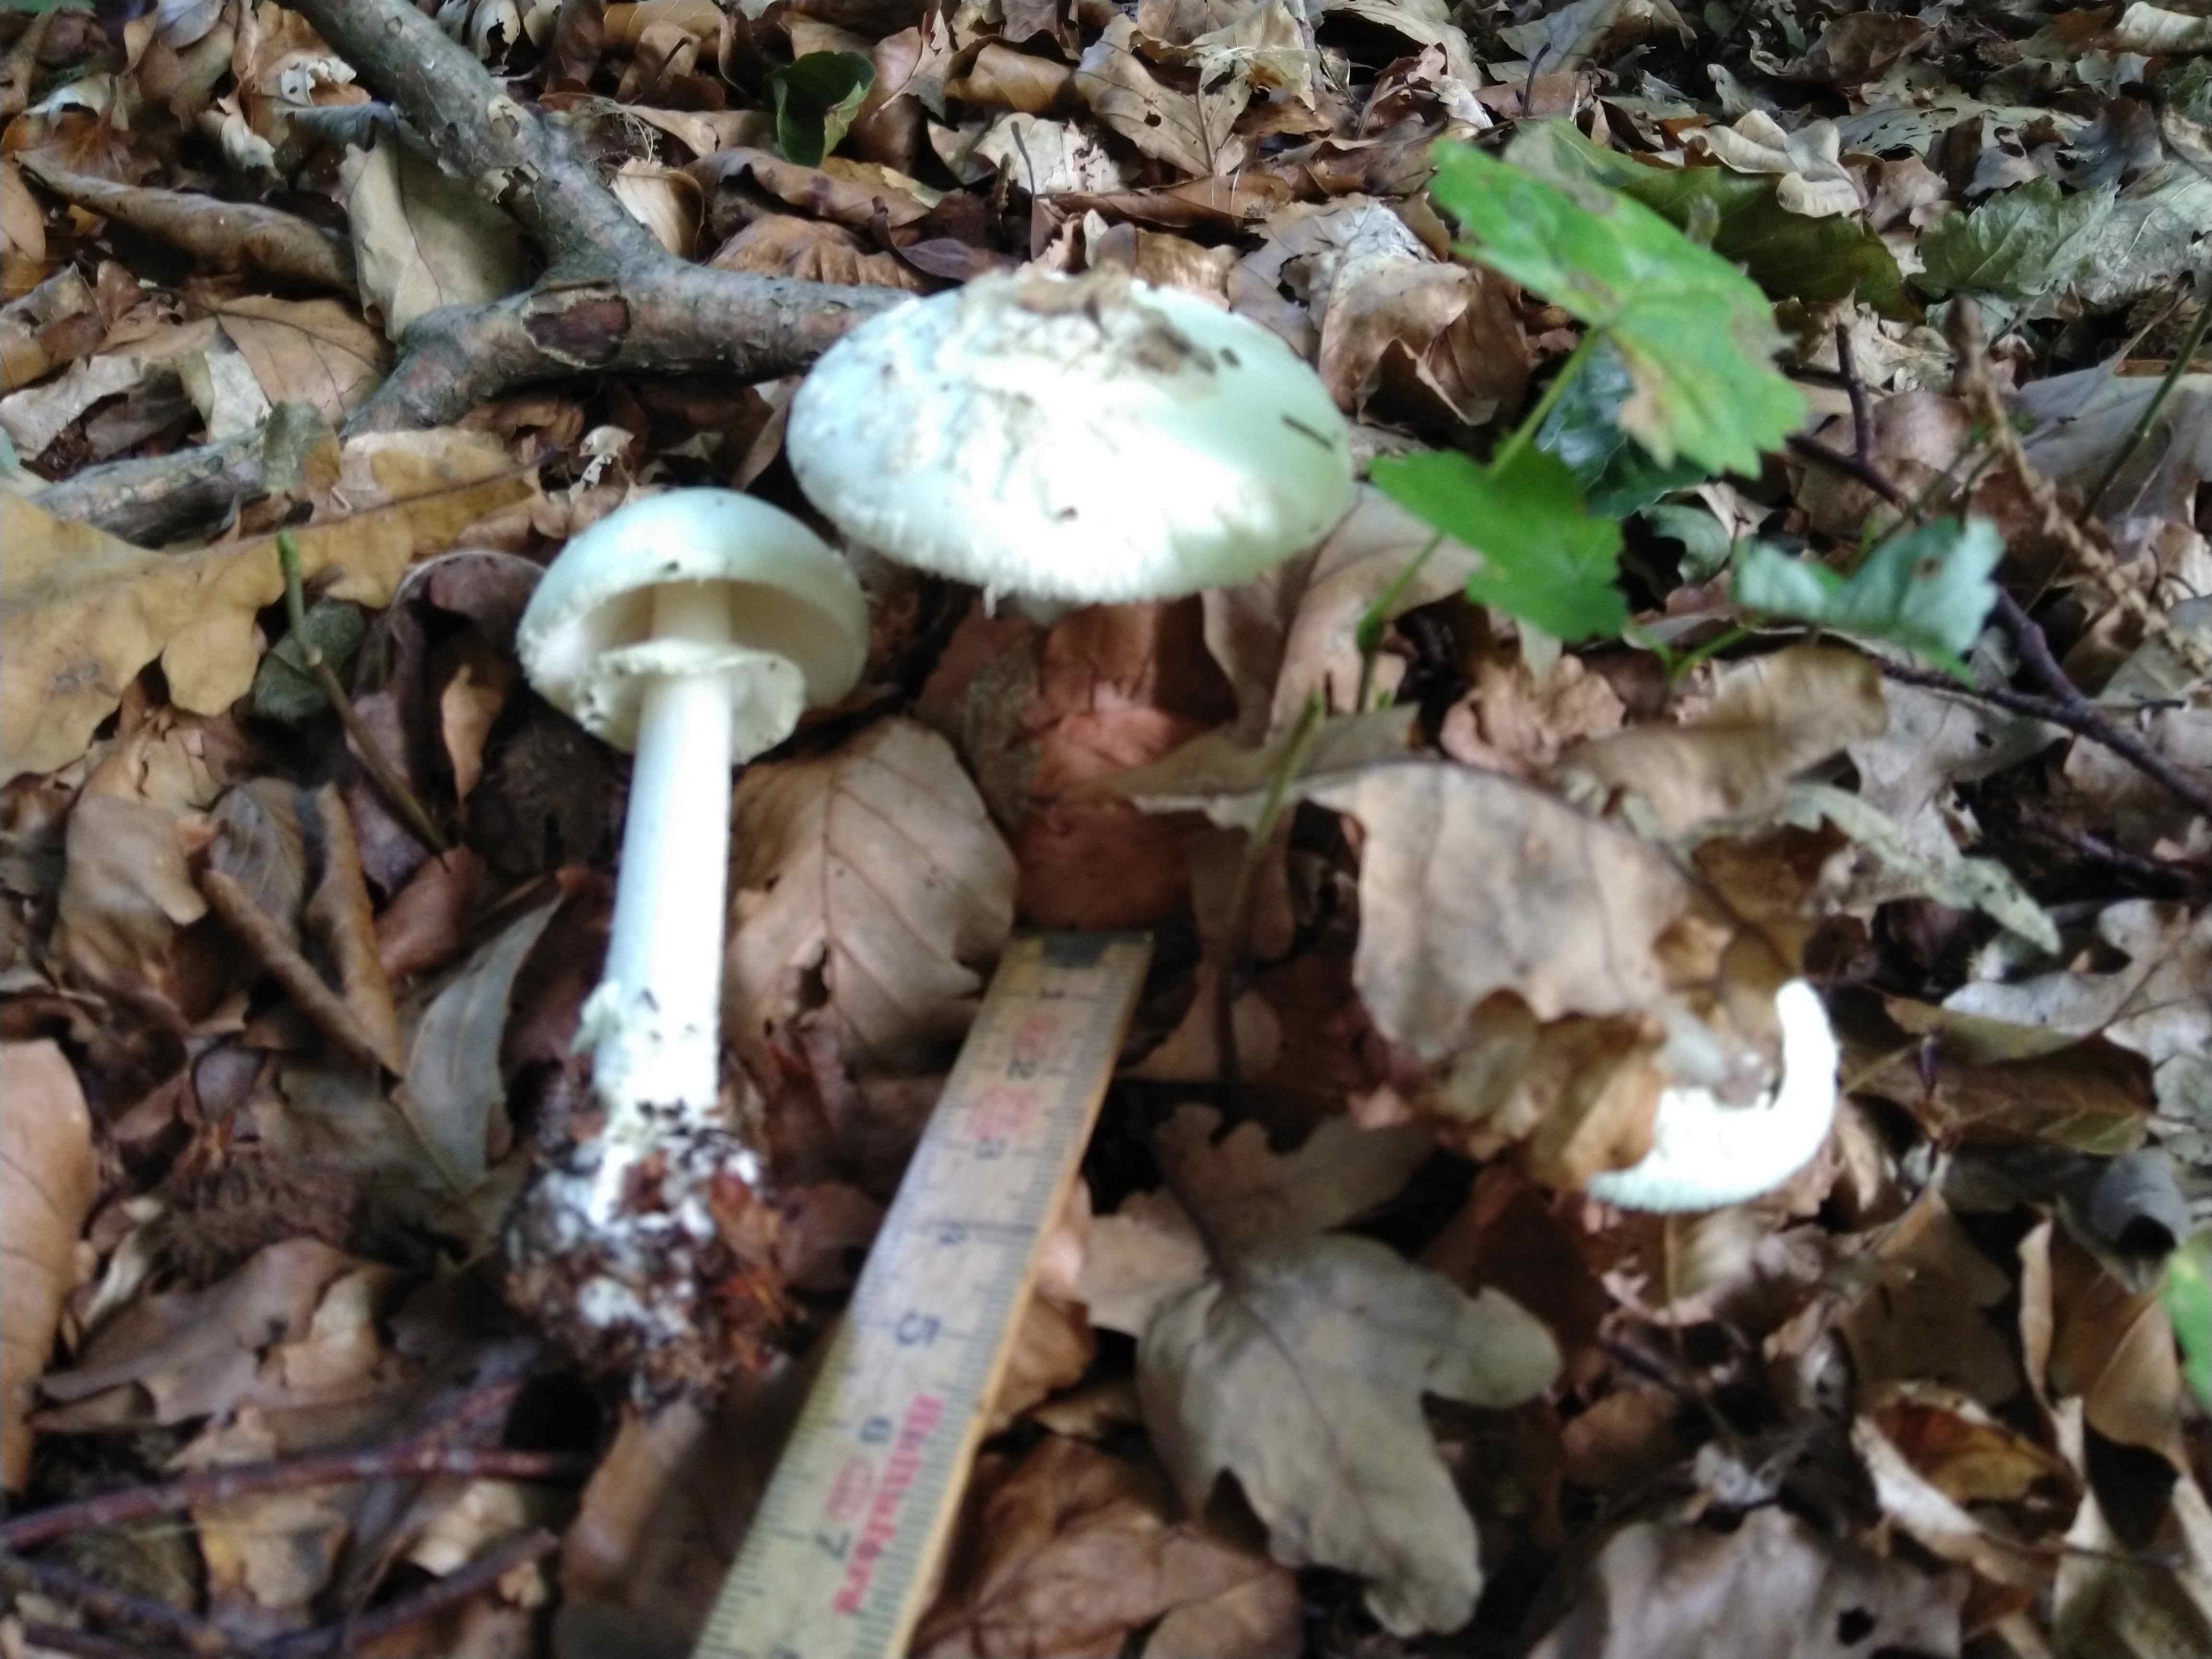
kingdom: Fungi
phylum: Basidiomycota
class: Agaricomycetes
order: Agaricales
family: Amanitaceae
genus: Amanita
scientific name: Amanita citrina
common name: kugleknoldet fluesvamp
